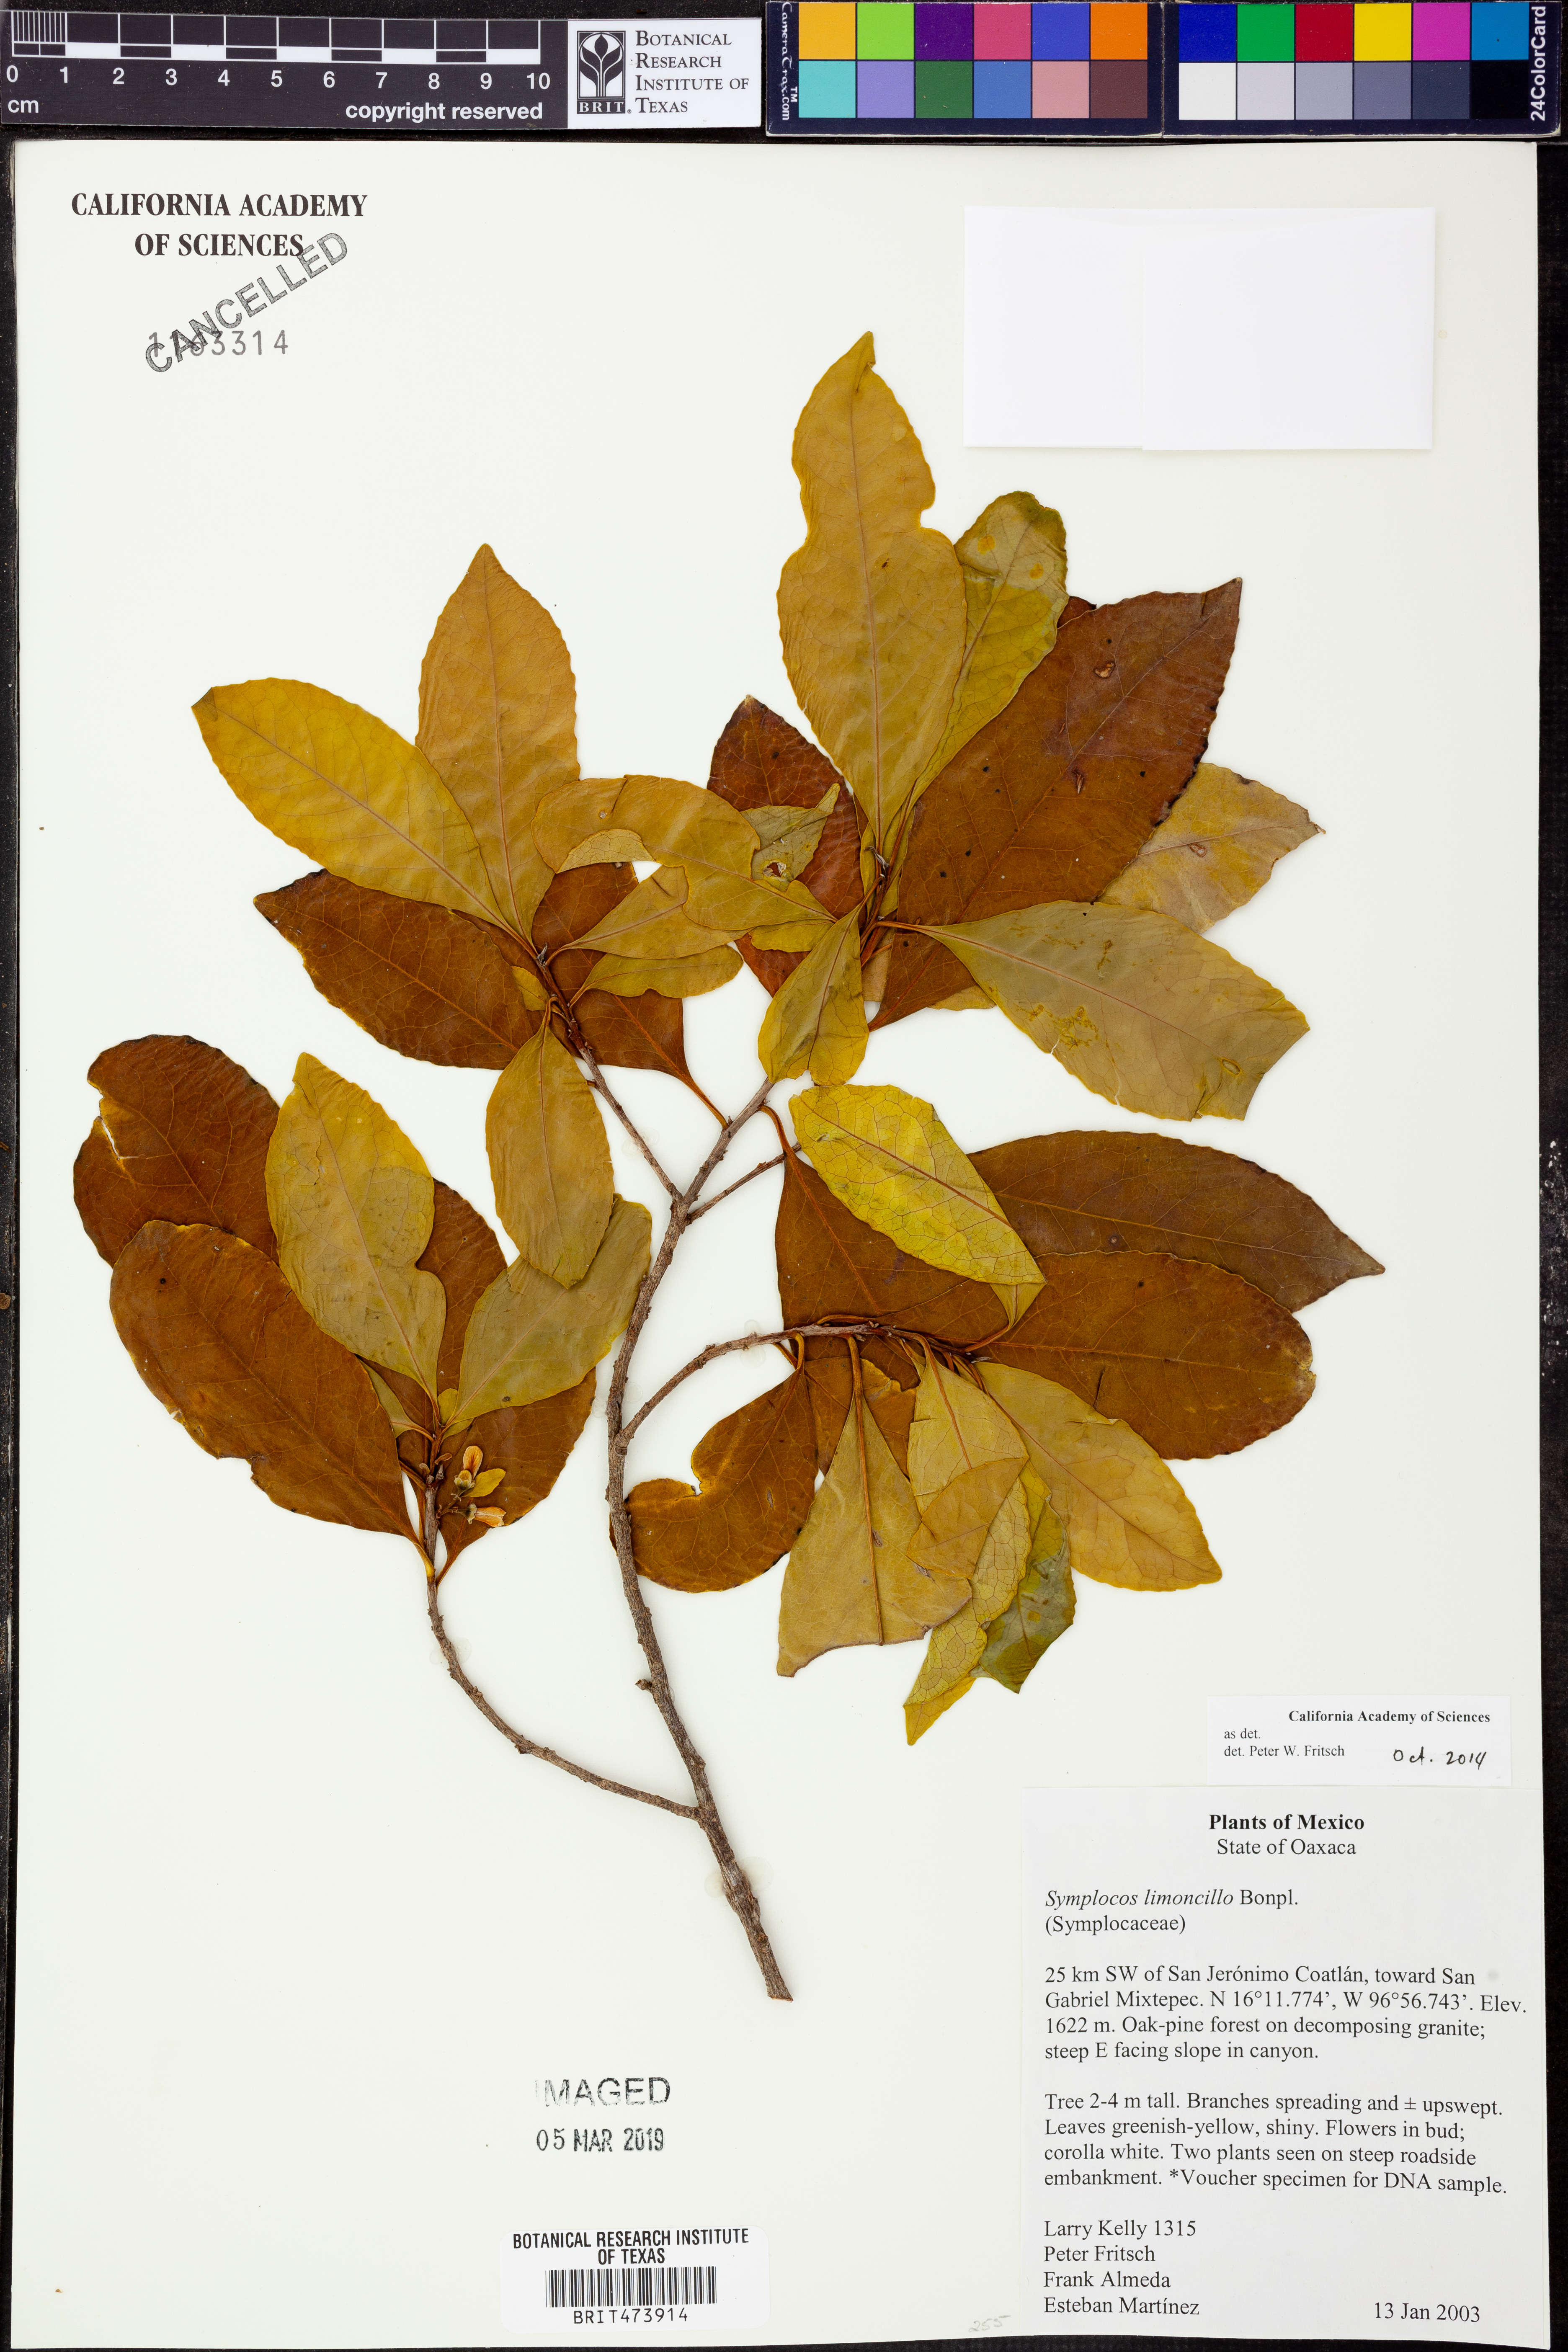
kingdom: Plantae
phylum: Tracheophyta
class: Magnoliopsida
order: Ericales
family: Symplocaceae
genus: Symplocos
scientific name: Symplocos limoncillo
